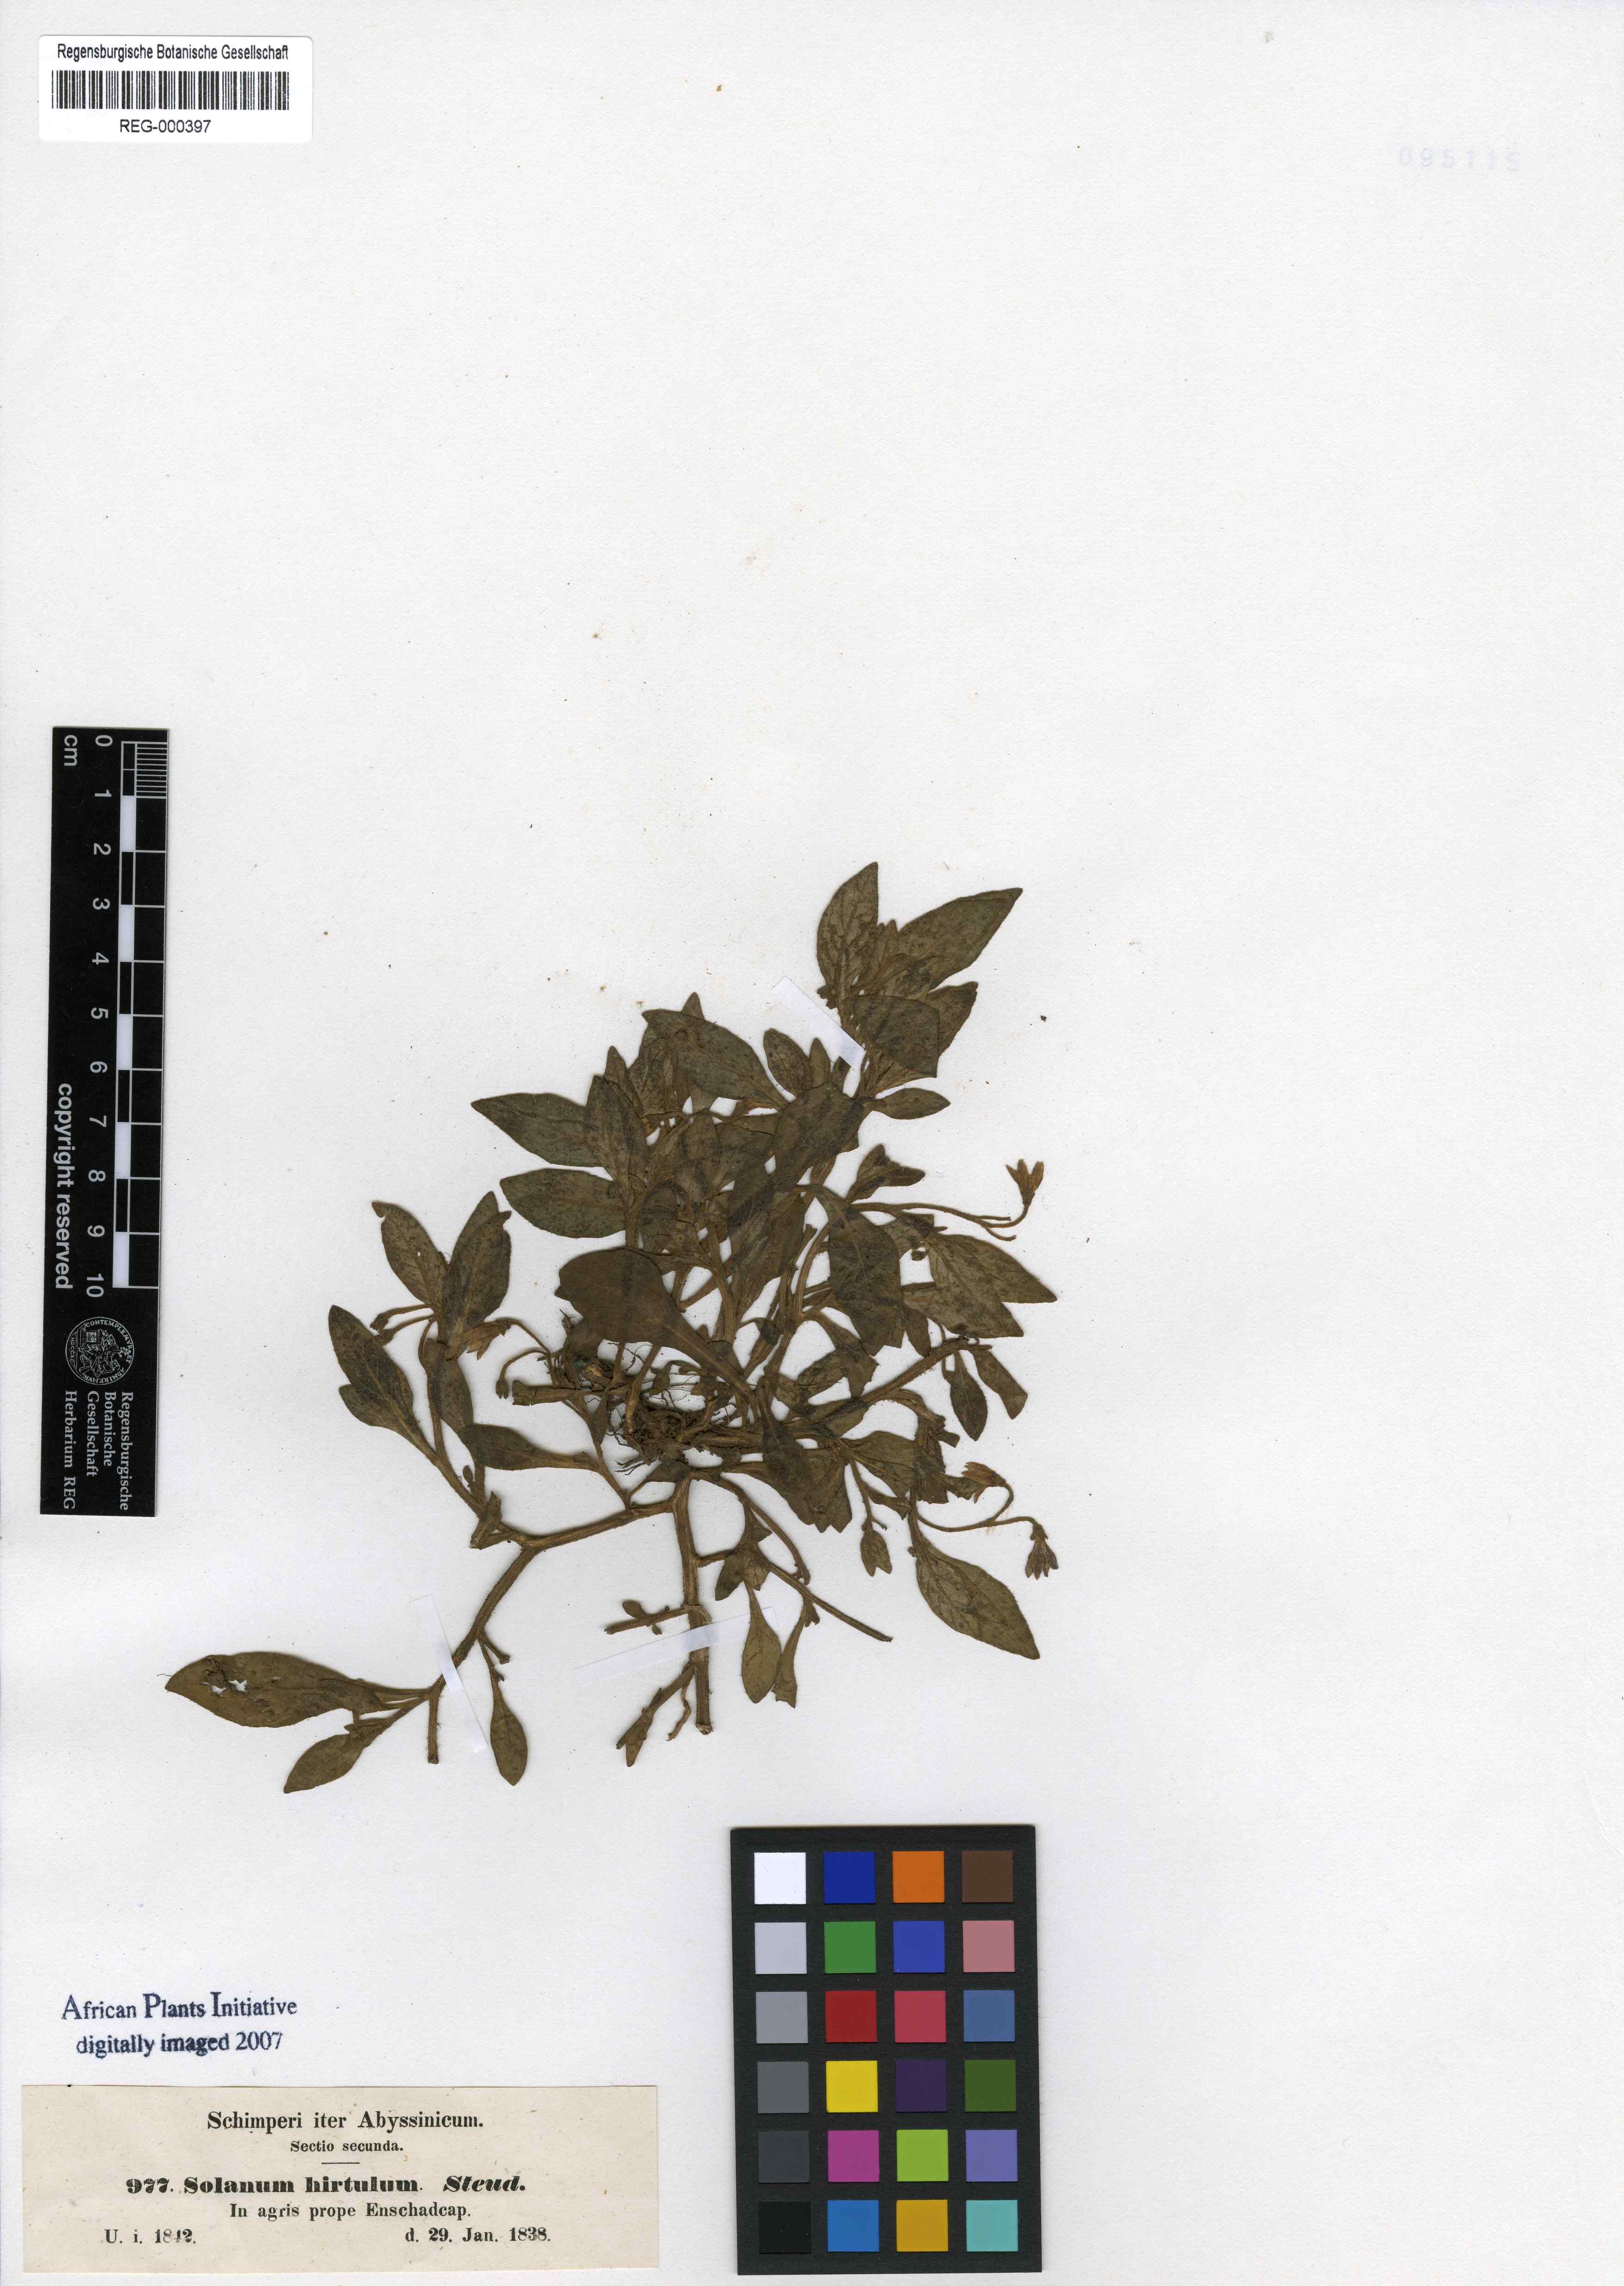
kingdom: Plantae
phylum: Tracheophyta
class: Magnoliopsida
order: Solanales
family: Solanaceae
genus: Solanum
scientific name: Solanum hirtulum
